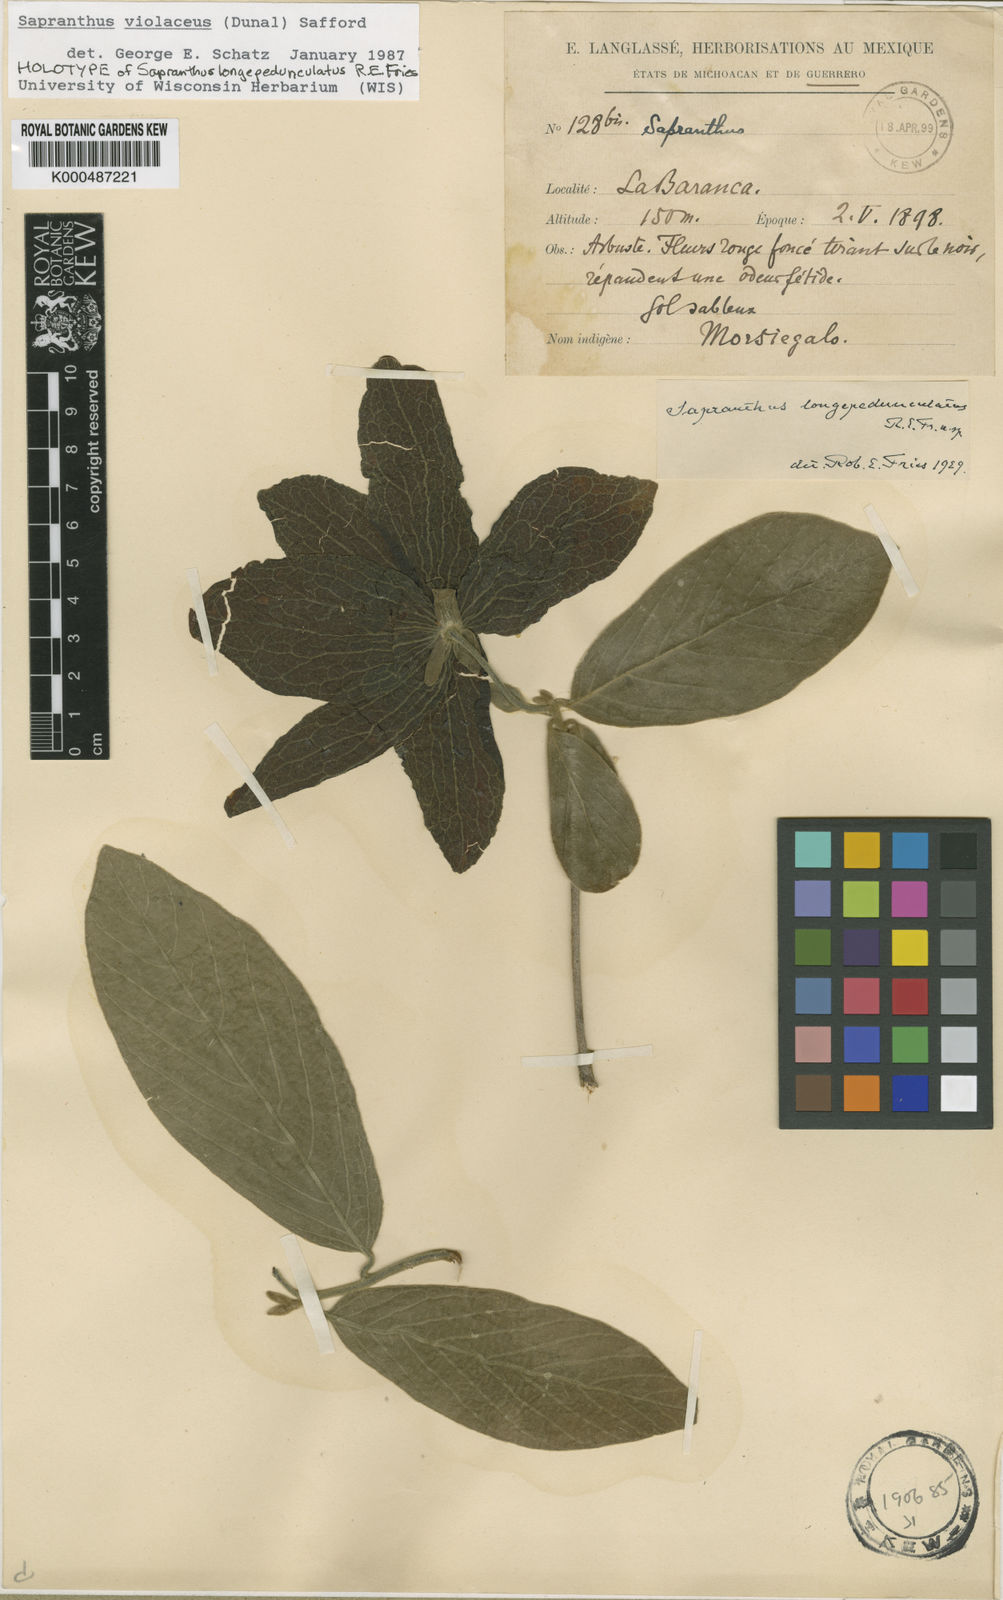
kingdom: Plantae
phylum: Tracheophyta
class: Magnoliopsida
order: Magnoliales
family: Annonaceae
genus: Sapranthus
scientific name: Sapranthus
